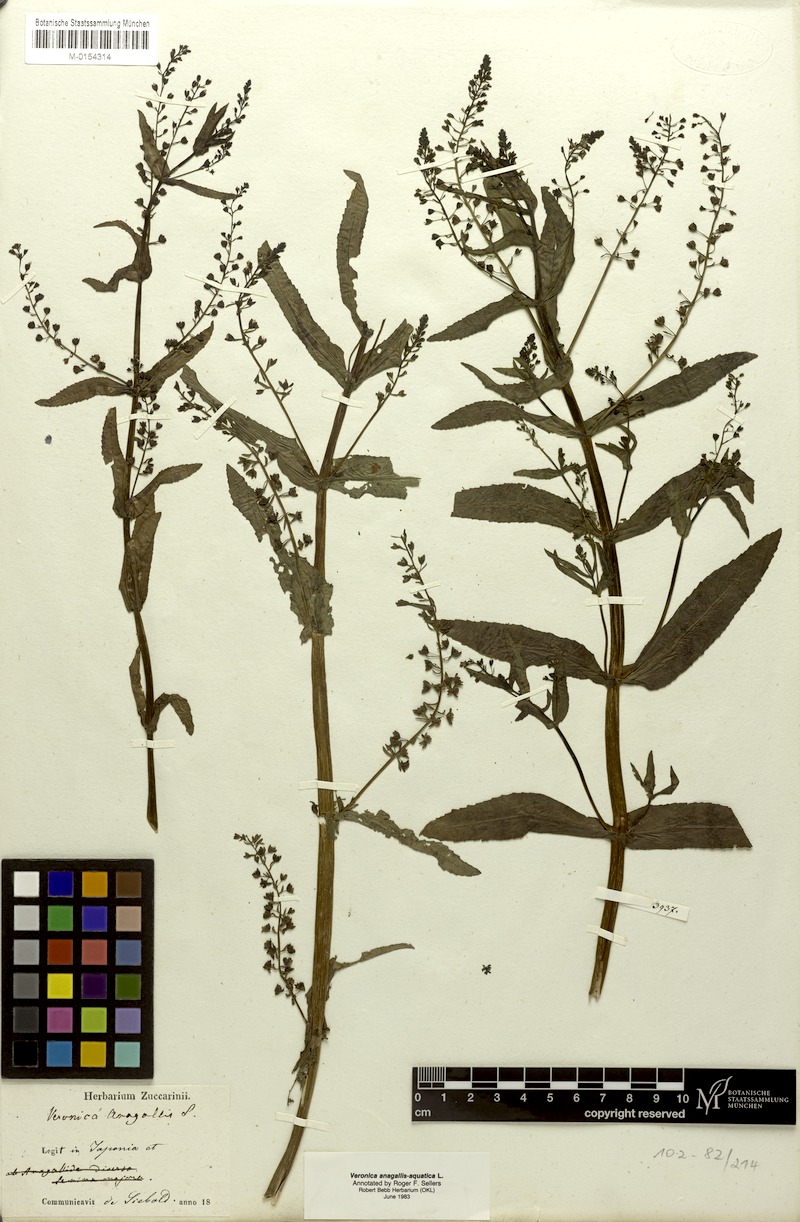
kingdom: Plantae
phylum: Tracheophyta
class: Magnoliopsida
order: Lamiales
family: Plantaginaceae
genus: Veronica
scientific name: Veronica anagallis-aquatica
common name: Water speedwell
